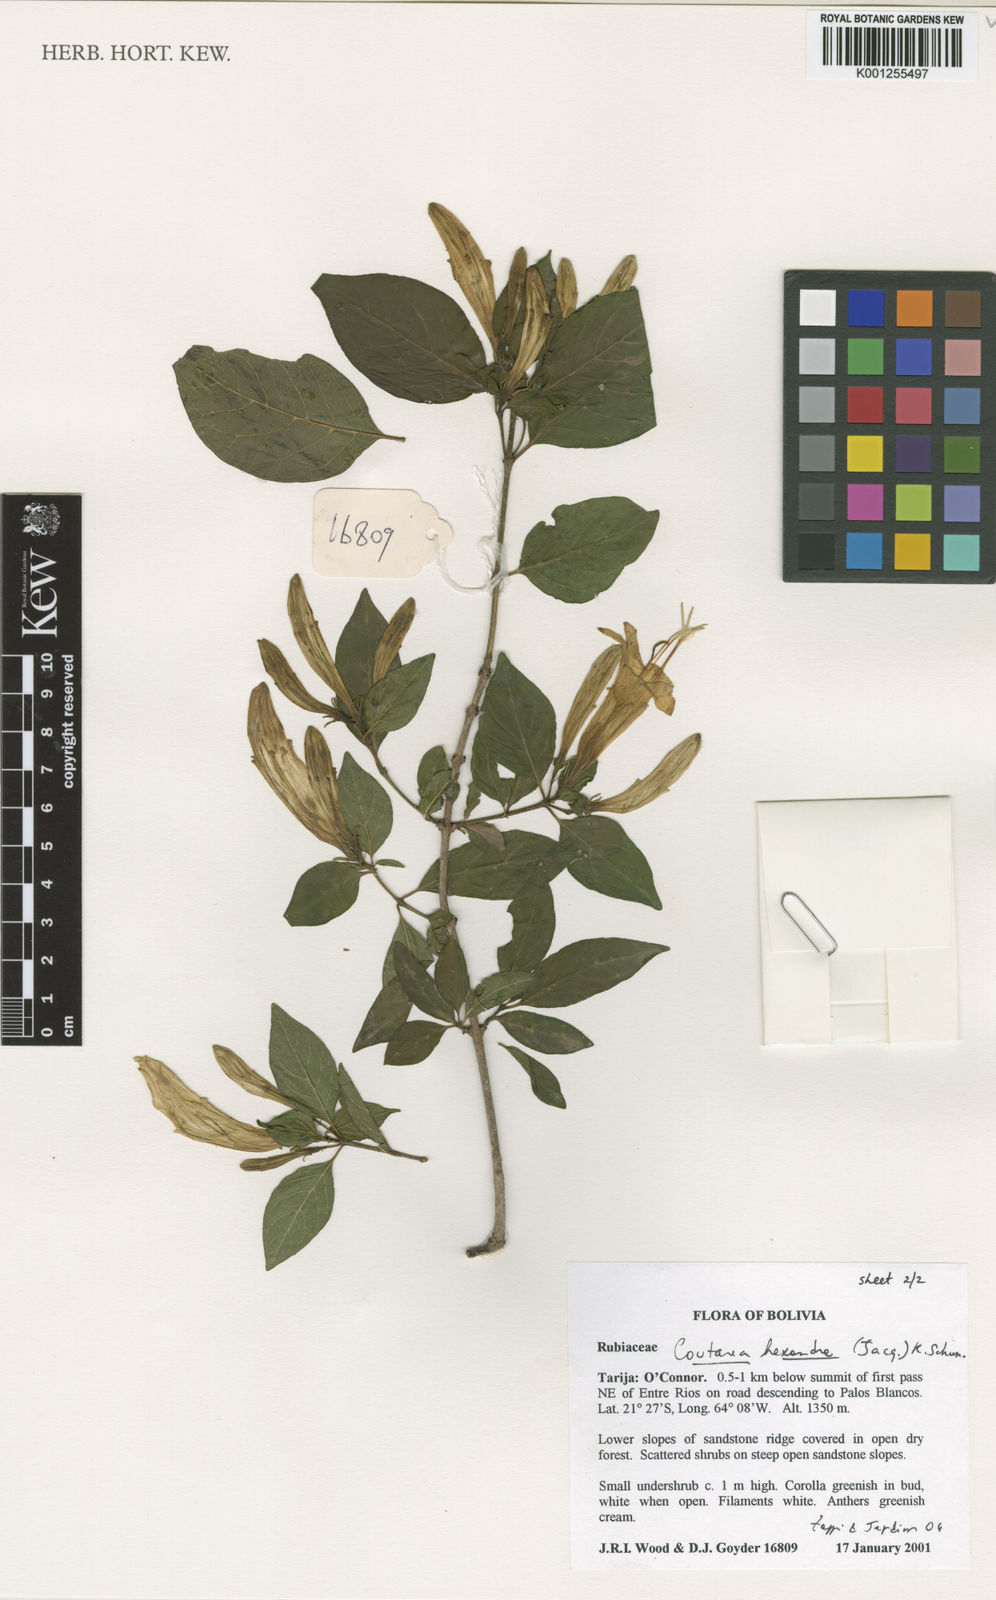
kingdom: Plantae
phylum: Tracheophyta
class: Magnoliopsida
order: Gentianales
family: Rubiaceae
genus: Coutarea
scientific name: Coutarea hexandra
